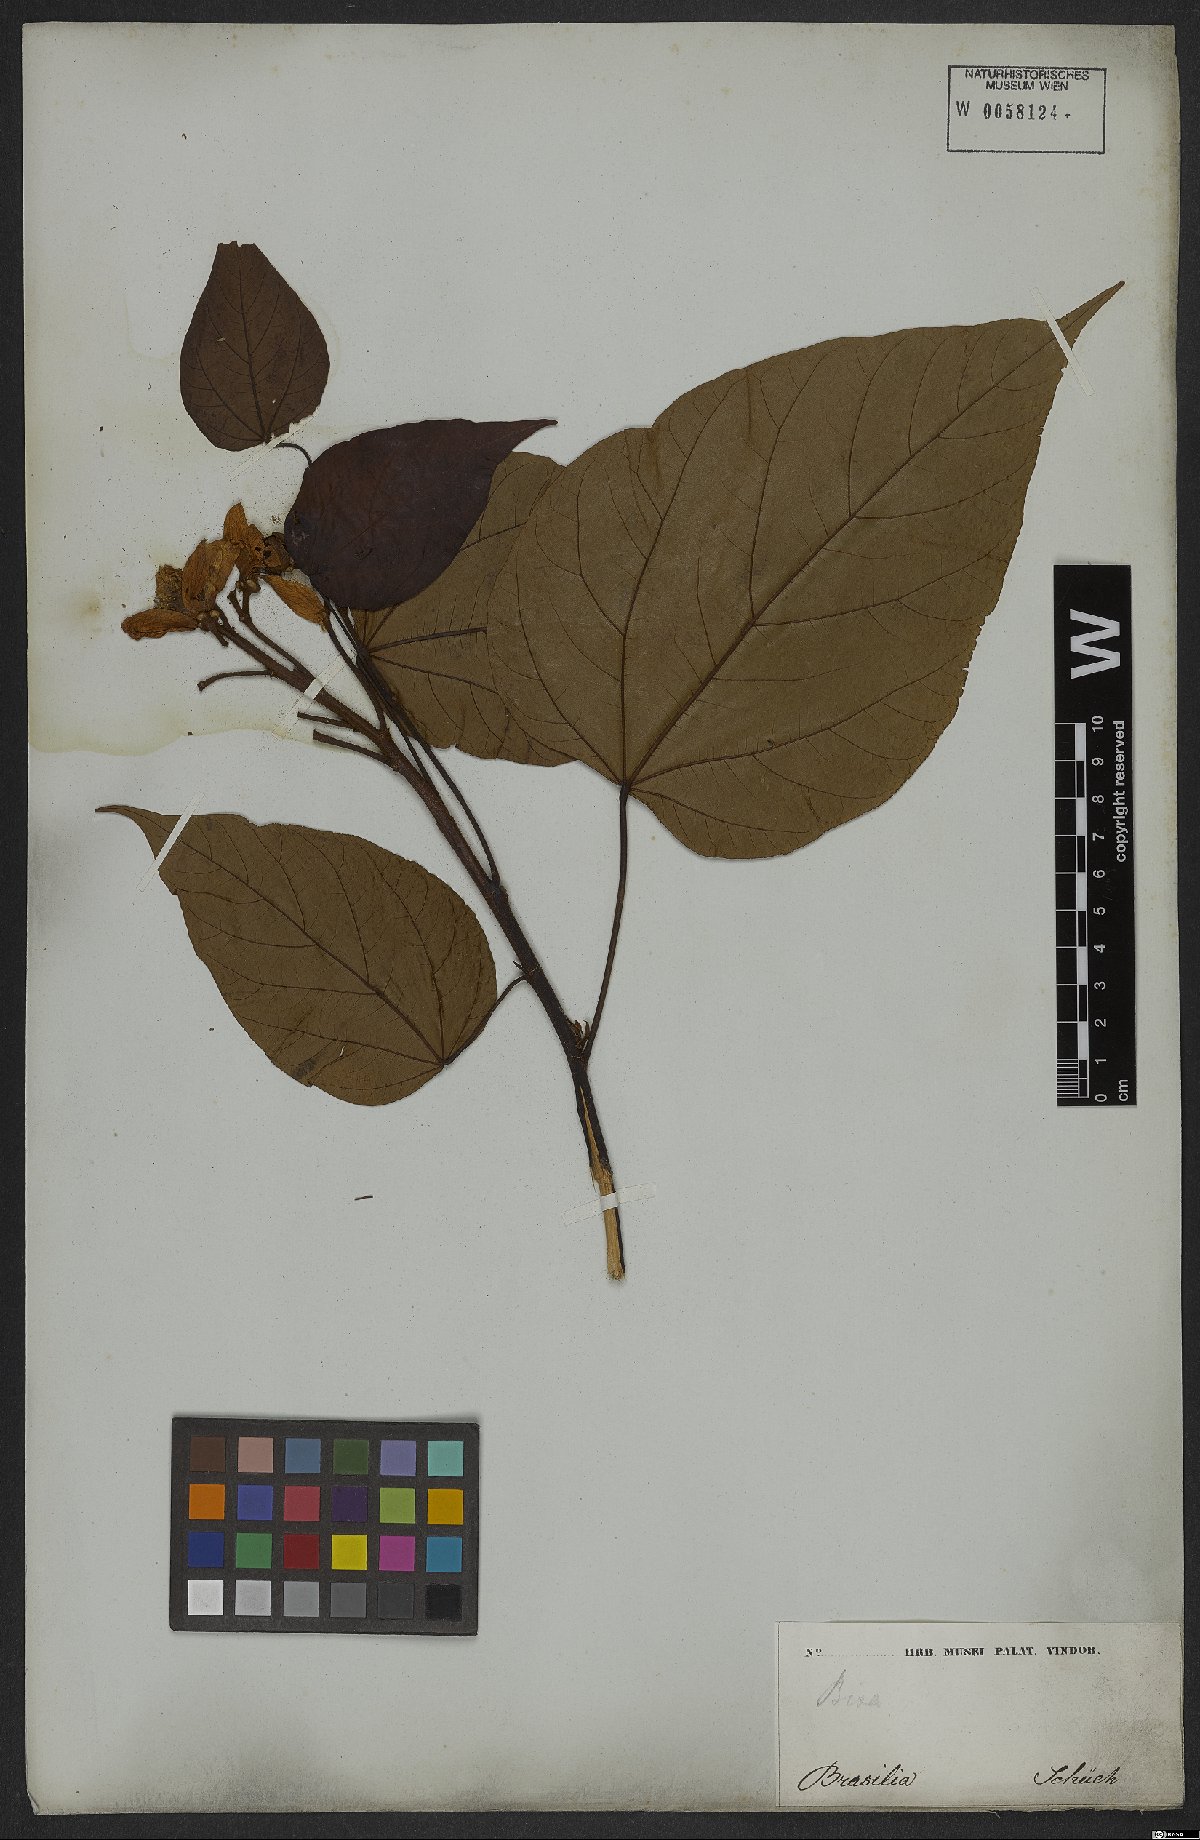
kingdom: Plantae
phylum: Tracheophyta
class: Magnoliopsida
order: Malvales
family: Bixaceae
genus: Bixa
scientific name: Bixa orellana
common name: Lipsticktree
